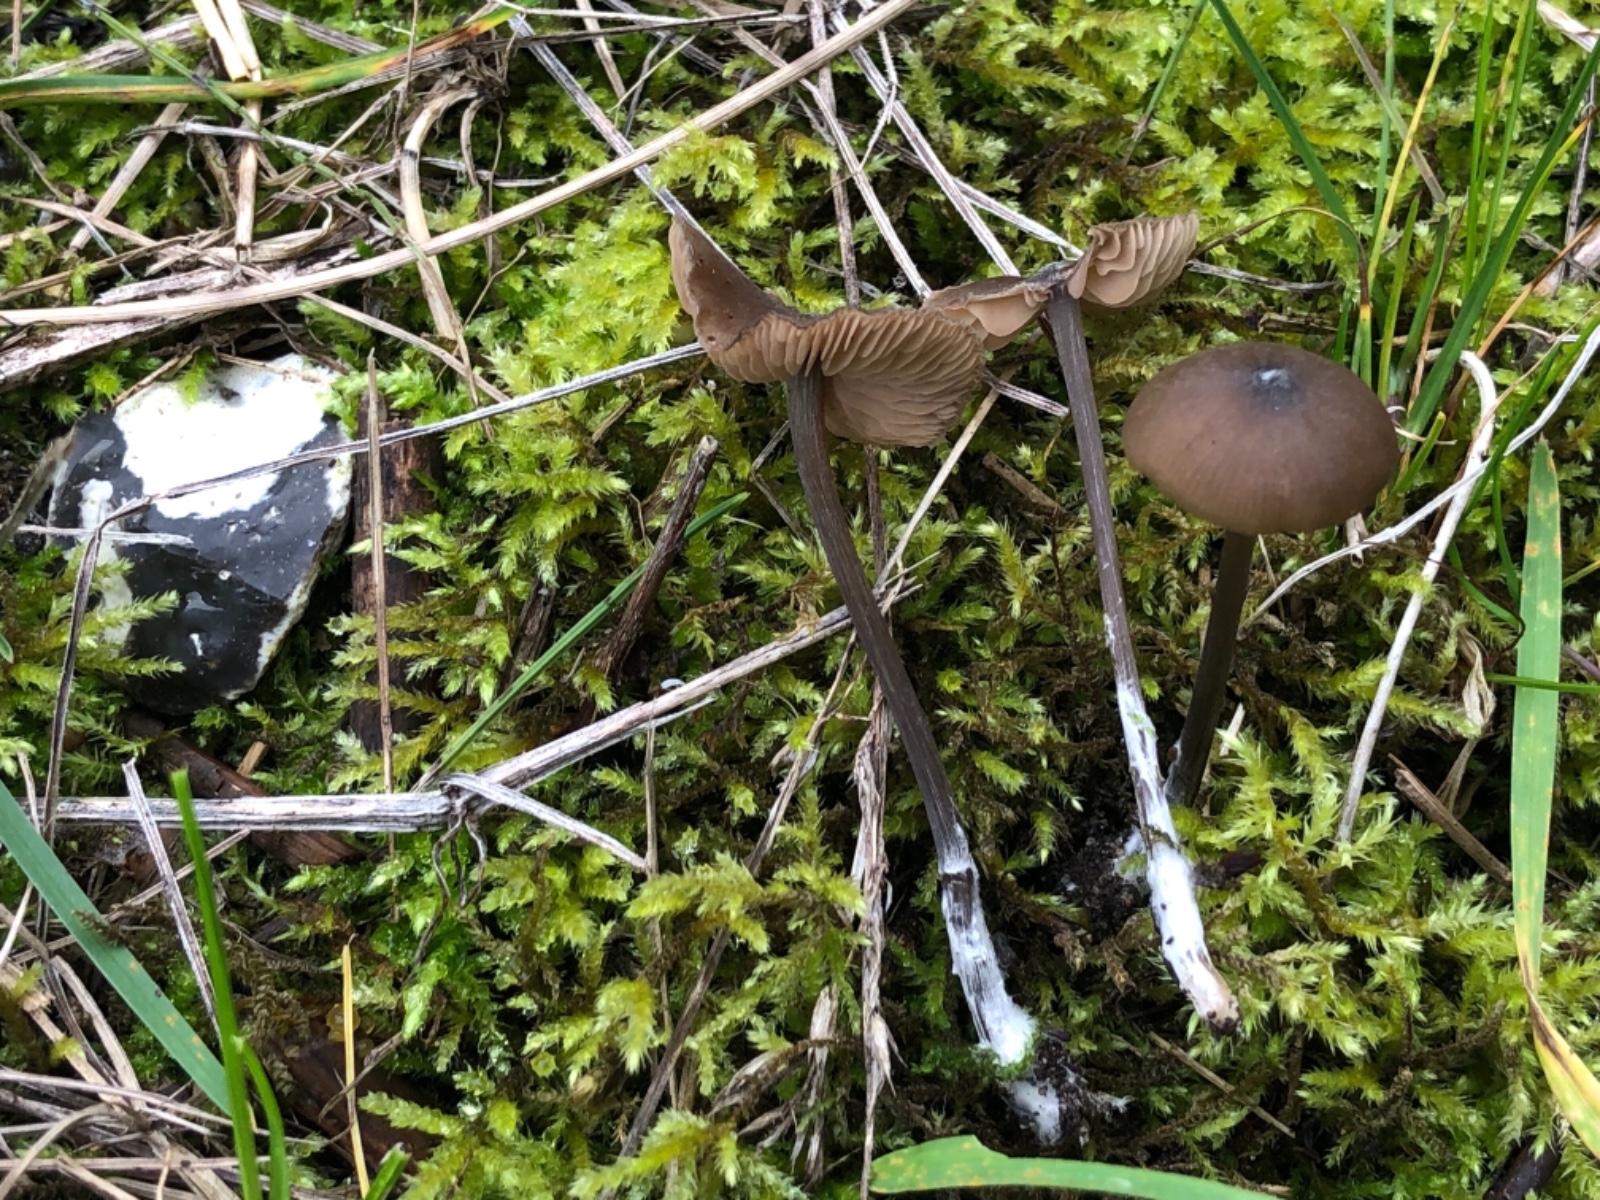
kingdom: Fungi
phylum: Basidiomycota
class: Agaricomycetes
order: Agaricales
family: Entolomataceae
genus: Entoloma
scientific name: Entoloma
